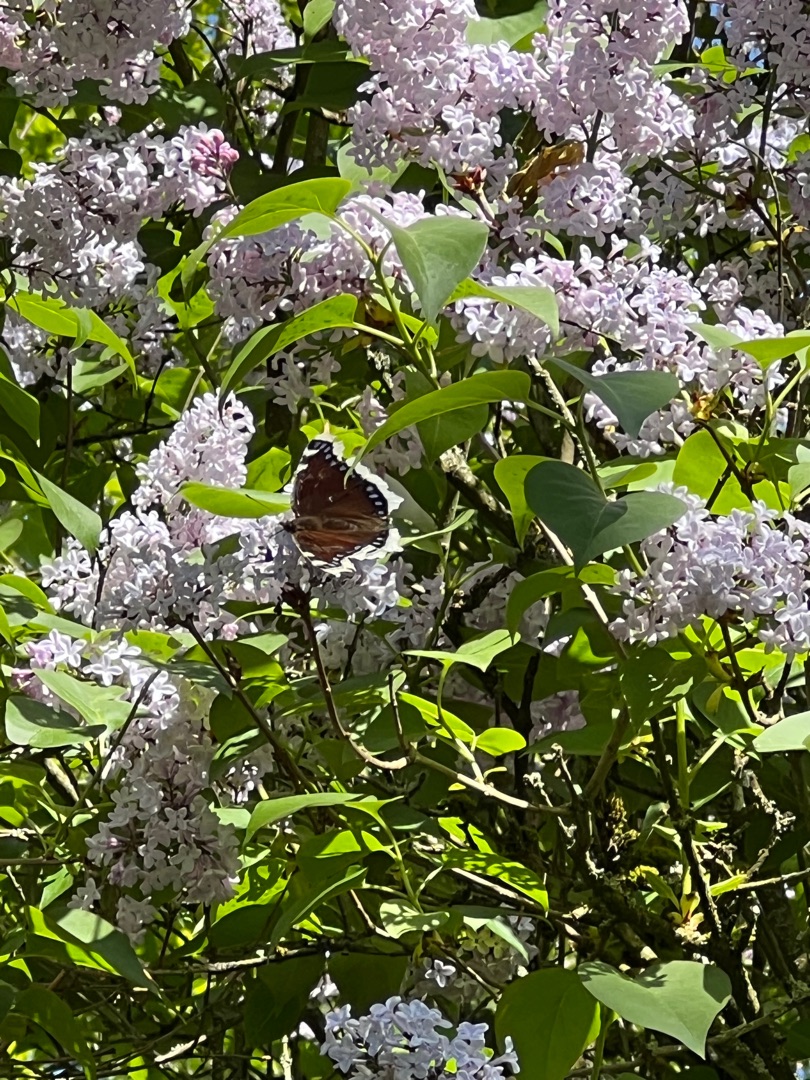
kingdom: Animalia
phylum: Arthropoda
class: Insecta
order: Lepidoptera
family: Nymphalidae
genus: Nymphalis
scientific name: Nymphalis antiopa
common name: Sørgekåbe
